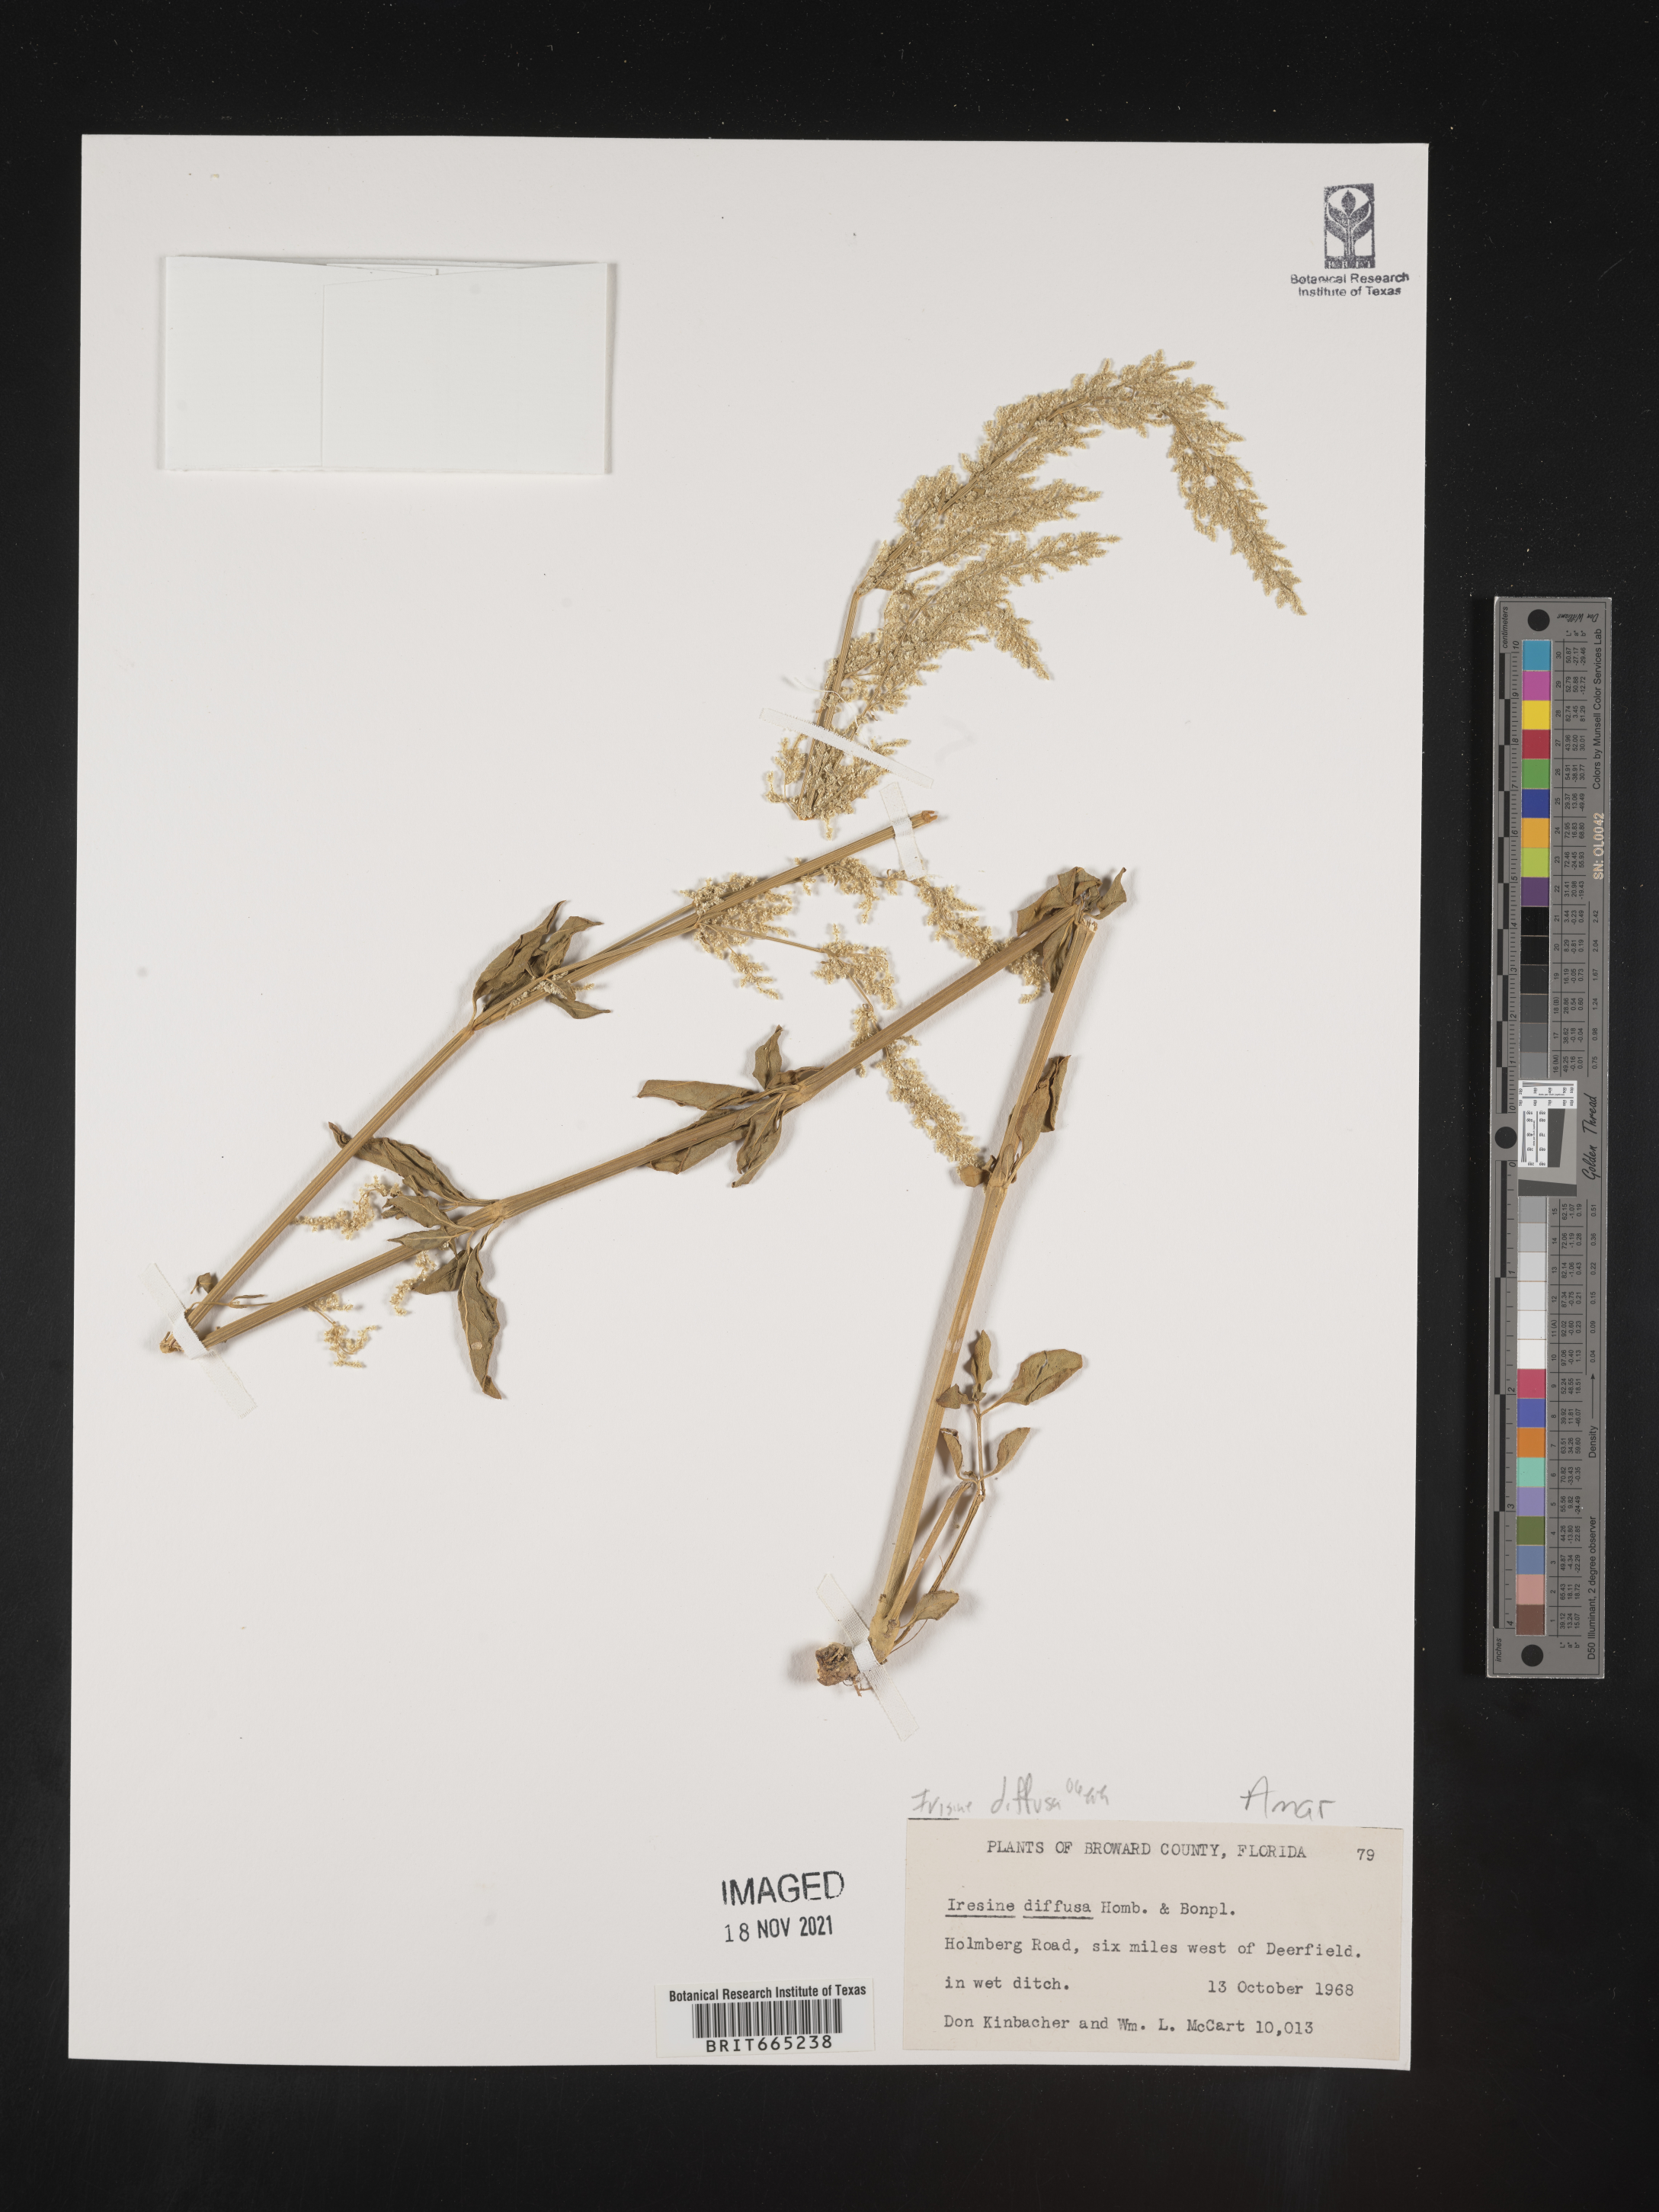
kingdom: Plantae
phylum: Tracheophyta
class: Magnoliopsida
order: Caryophyllales
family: Amaranthaceae
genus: Iresine
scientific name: Iresine
